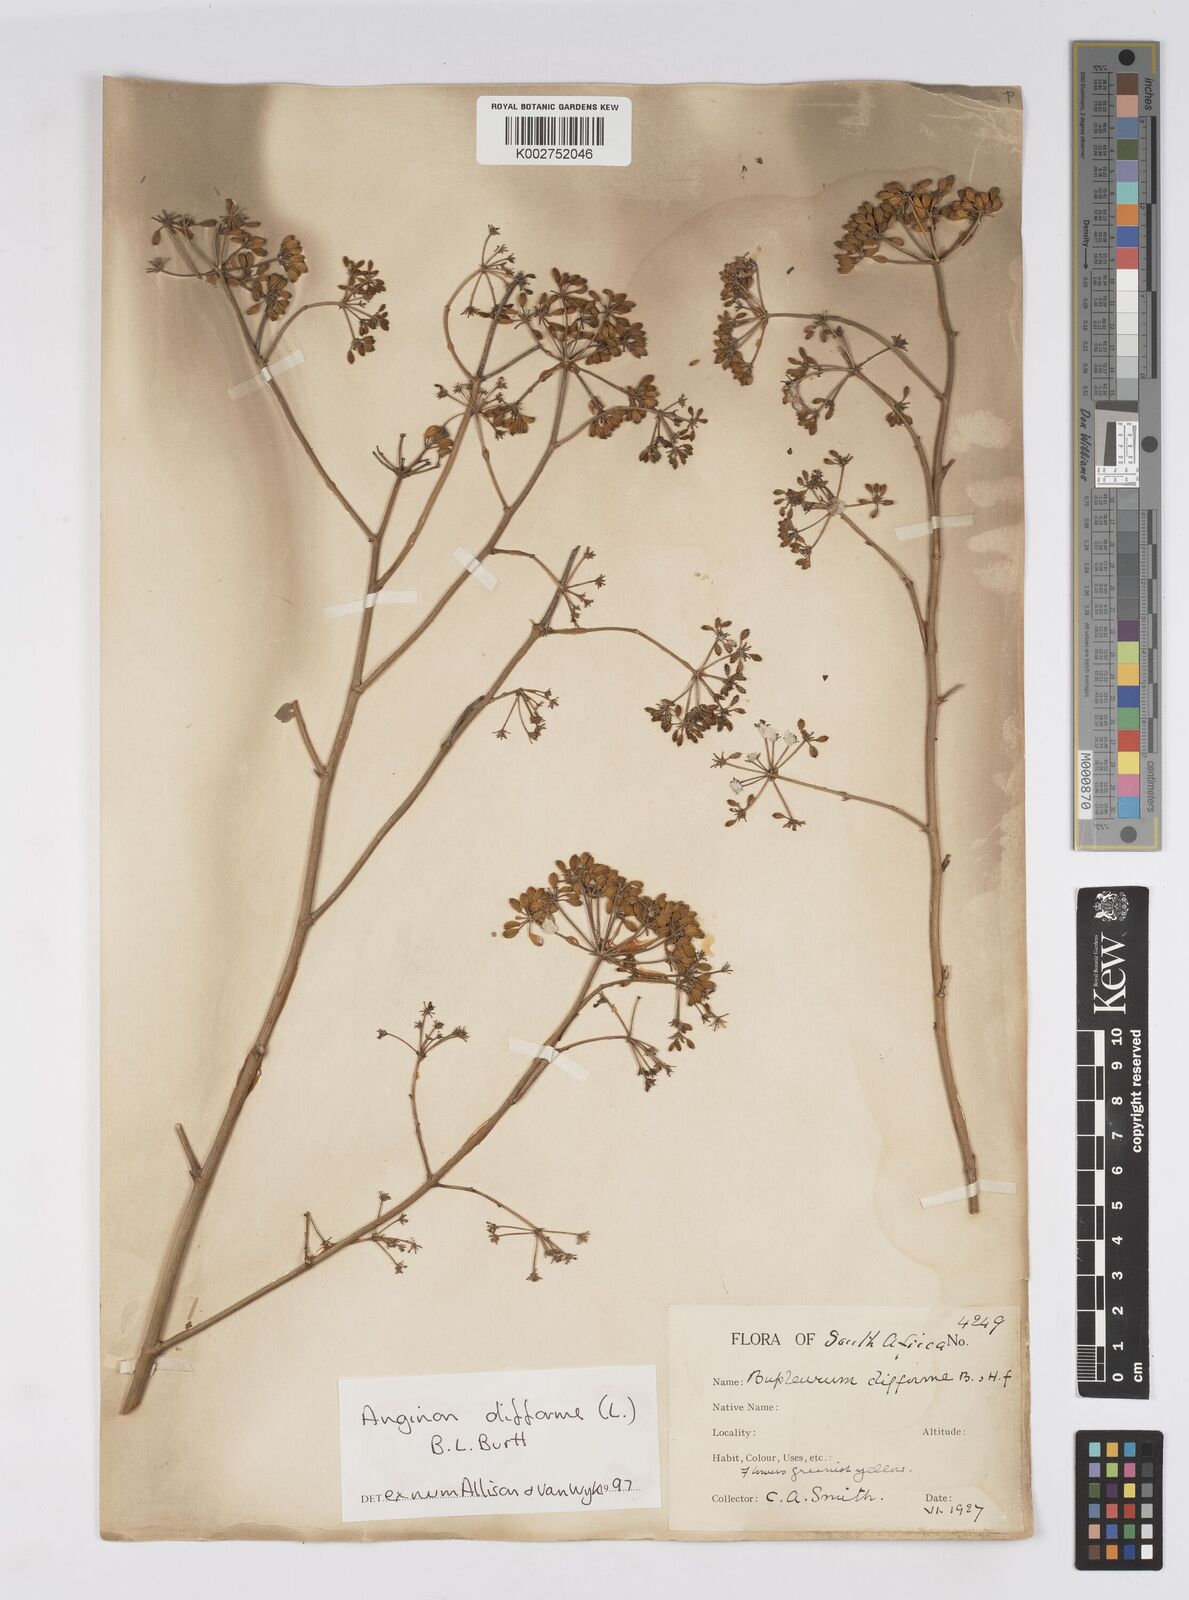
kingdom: Plantae
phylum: Tracheophyta
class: Magnoliopsida
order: Apiales
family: Apiaceae
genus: Anginon
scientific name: Anginon difforme
